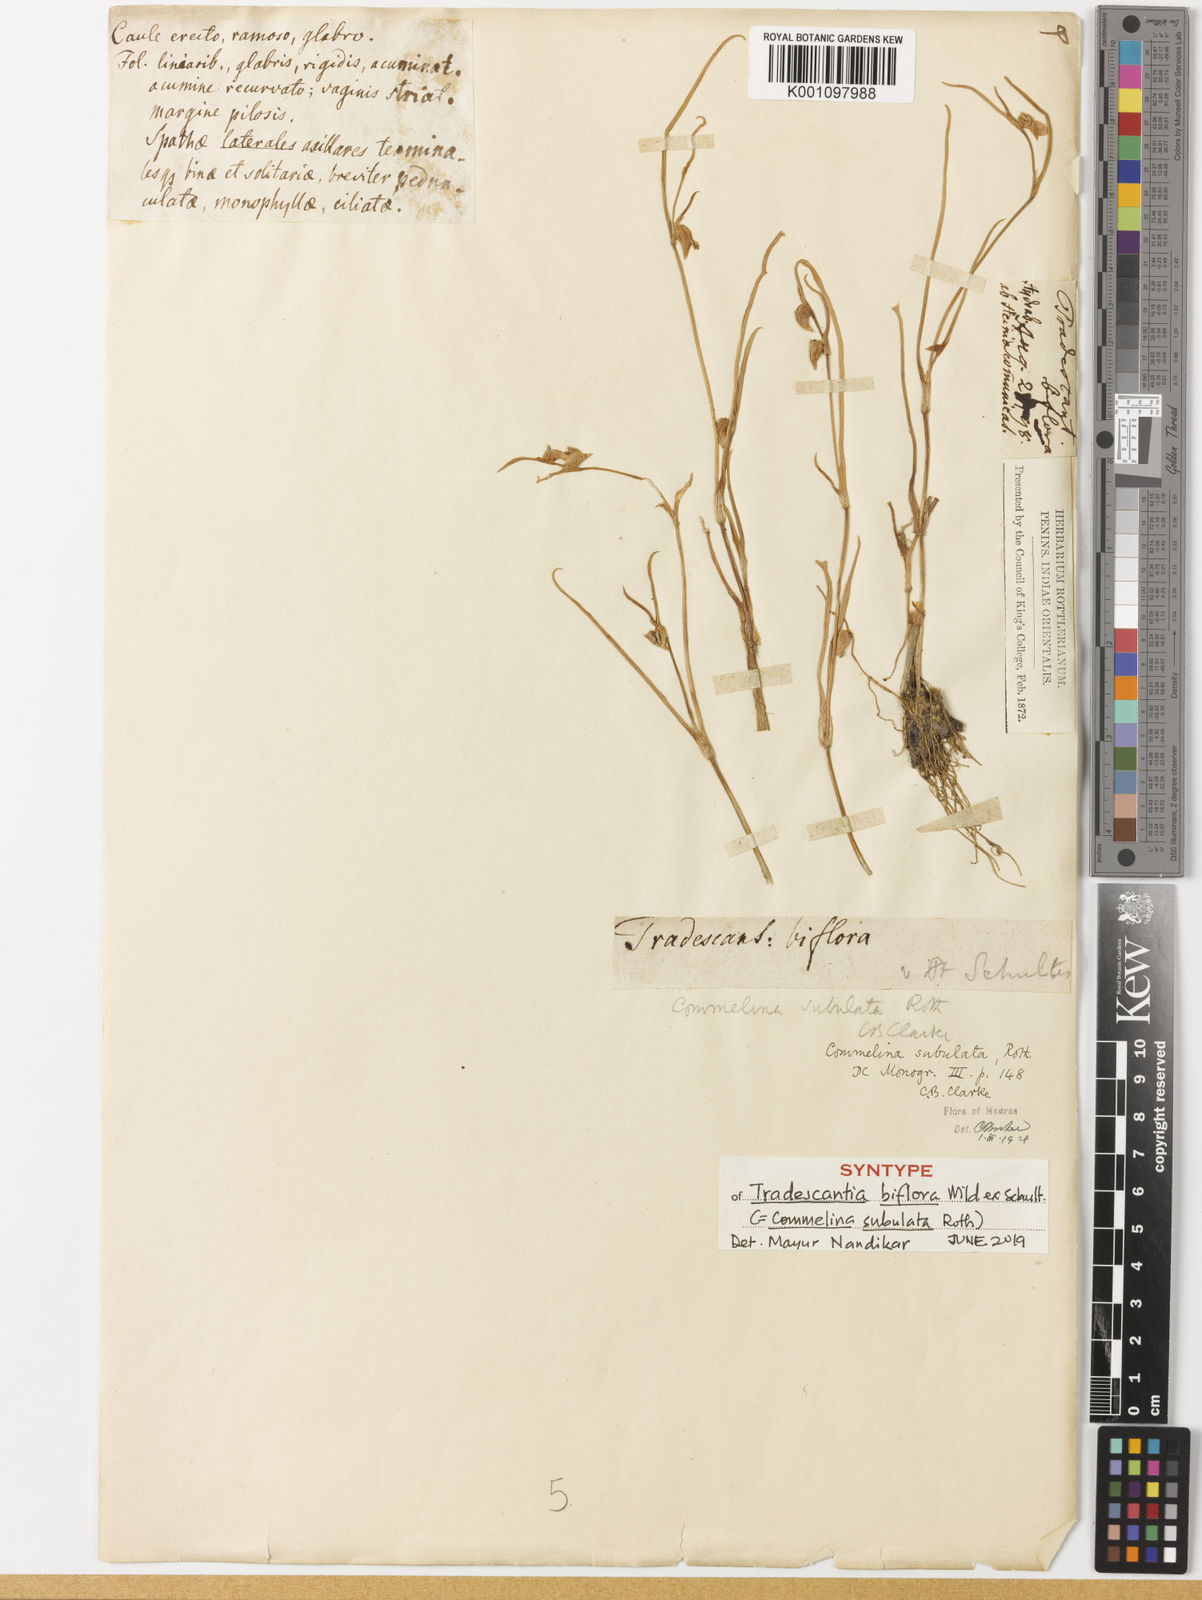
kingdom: Plantae
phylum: Tracheophyta
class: Liliopsida
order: Commelinales
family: Commelinaceae
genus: Commelina
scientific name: Commelina subulata
